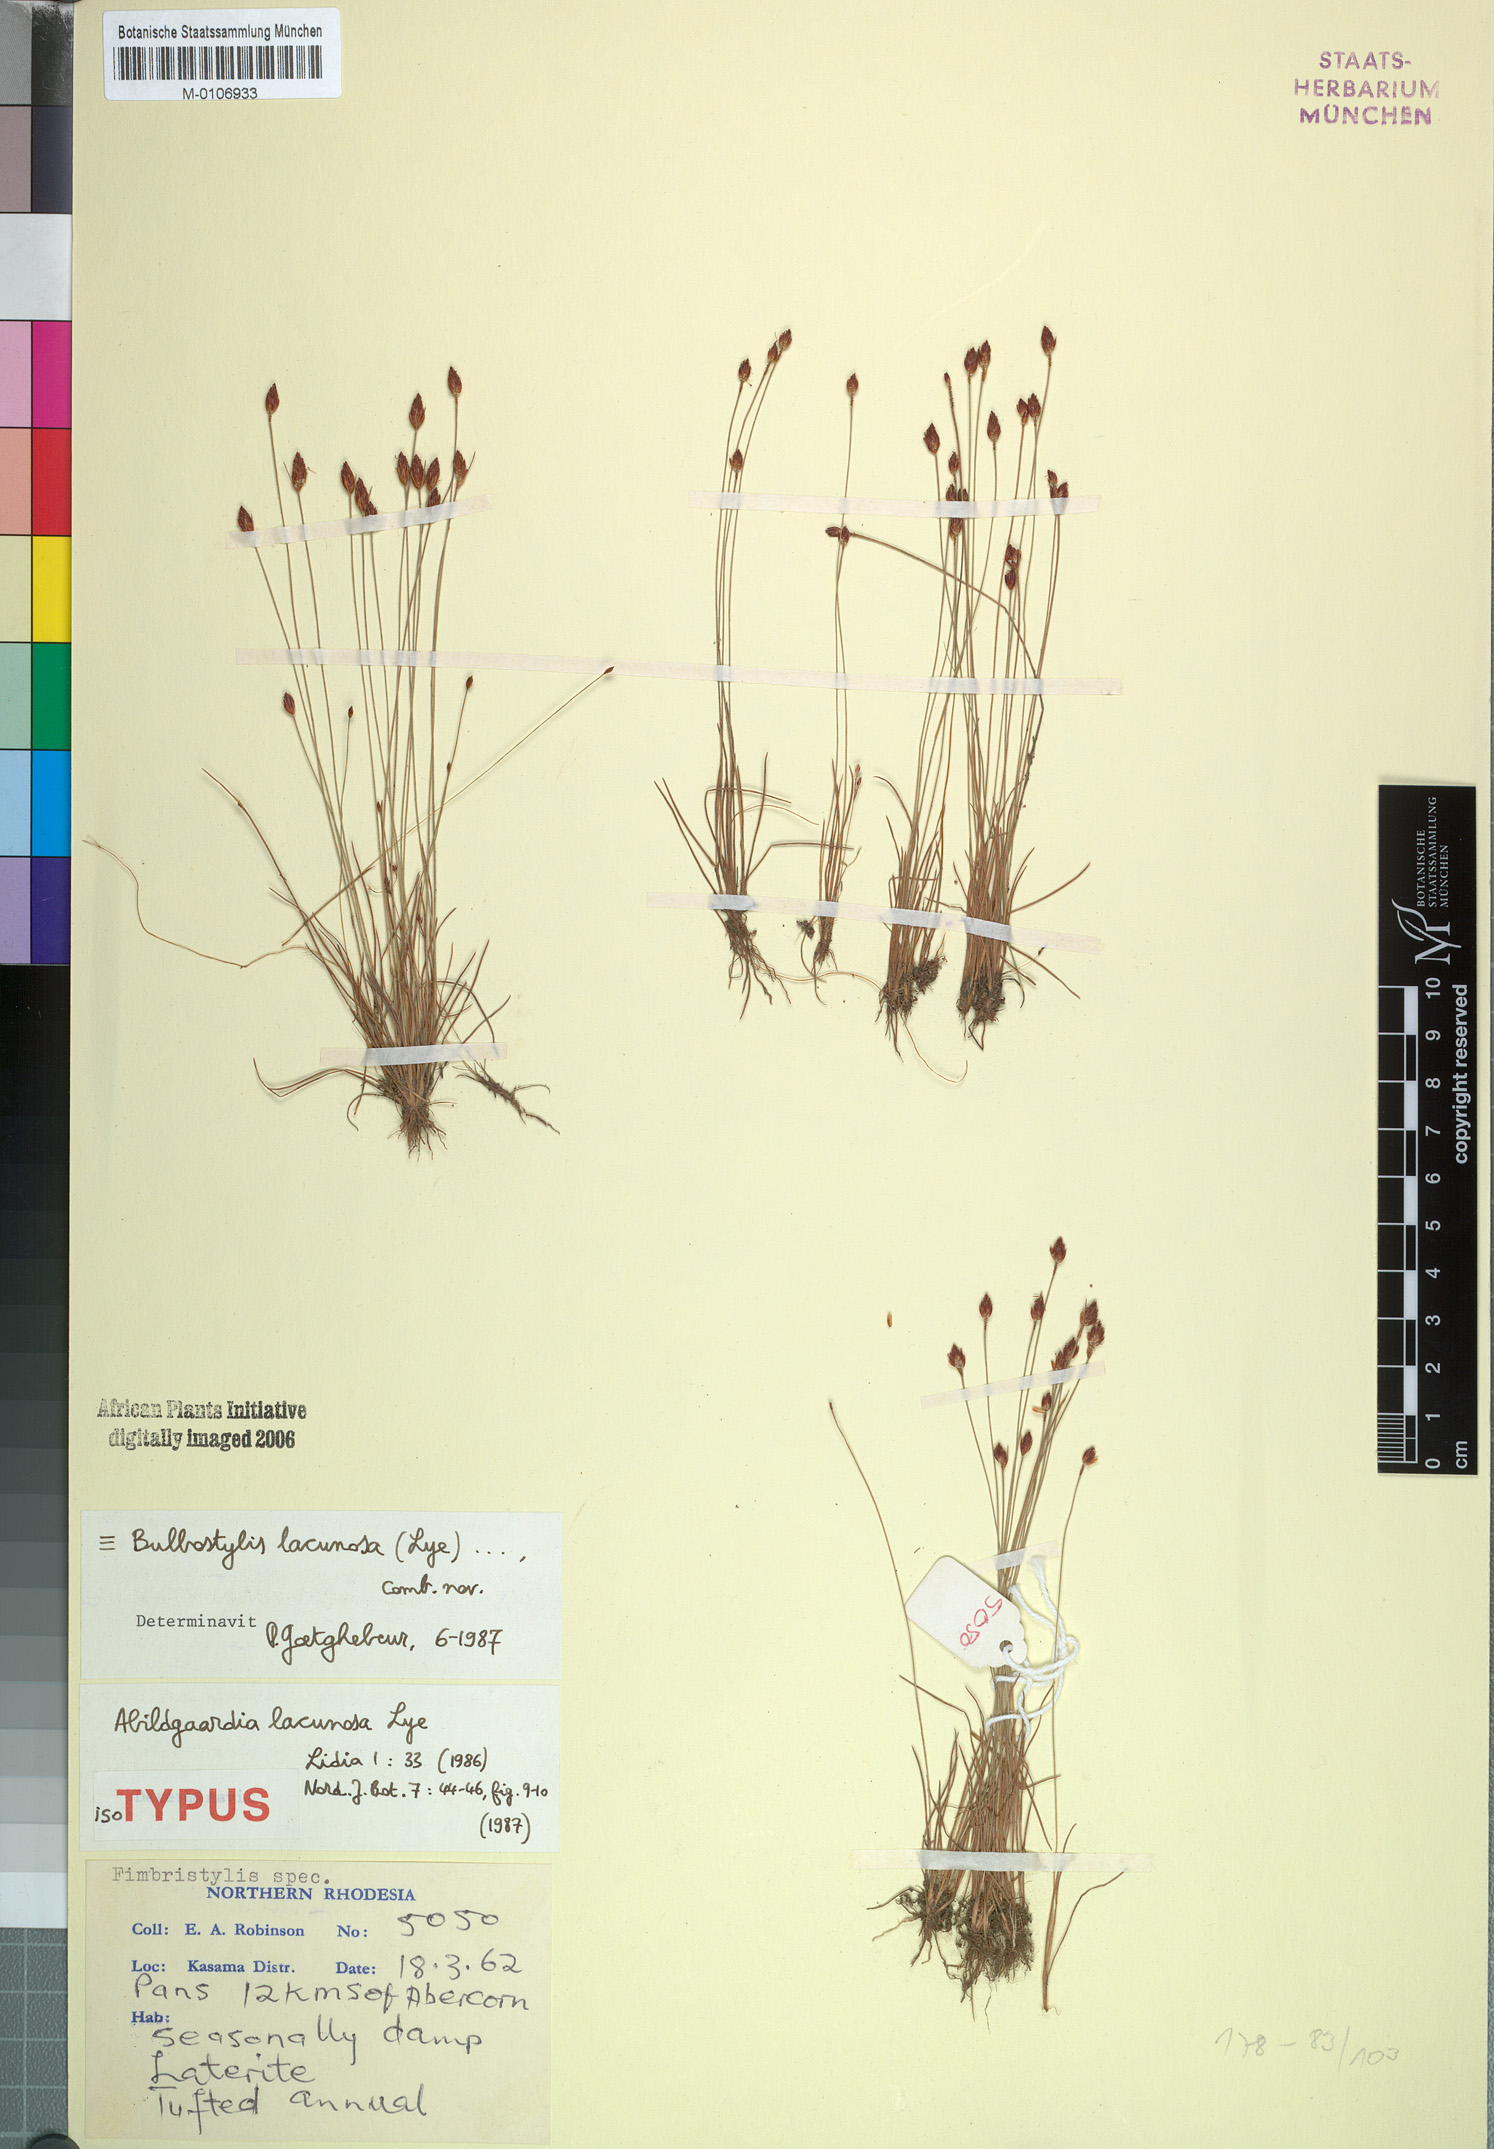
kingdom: Plantae
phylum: Tracheophyta
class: Liliopsida
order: Poales
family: Cyperaceae
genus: Bulbostylis
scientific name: Bulbostylis lacunosa
